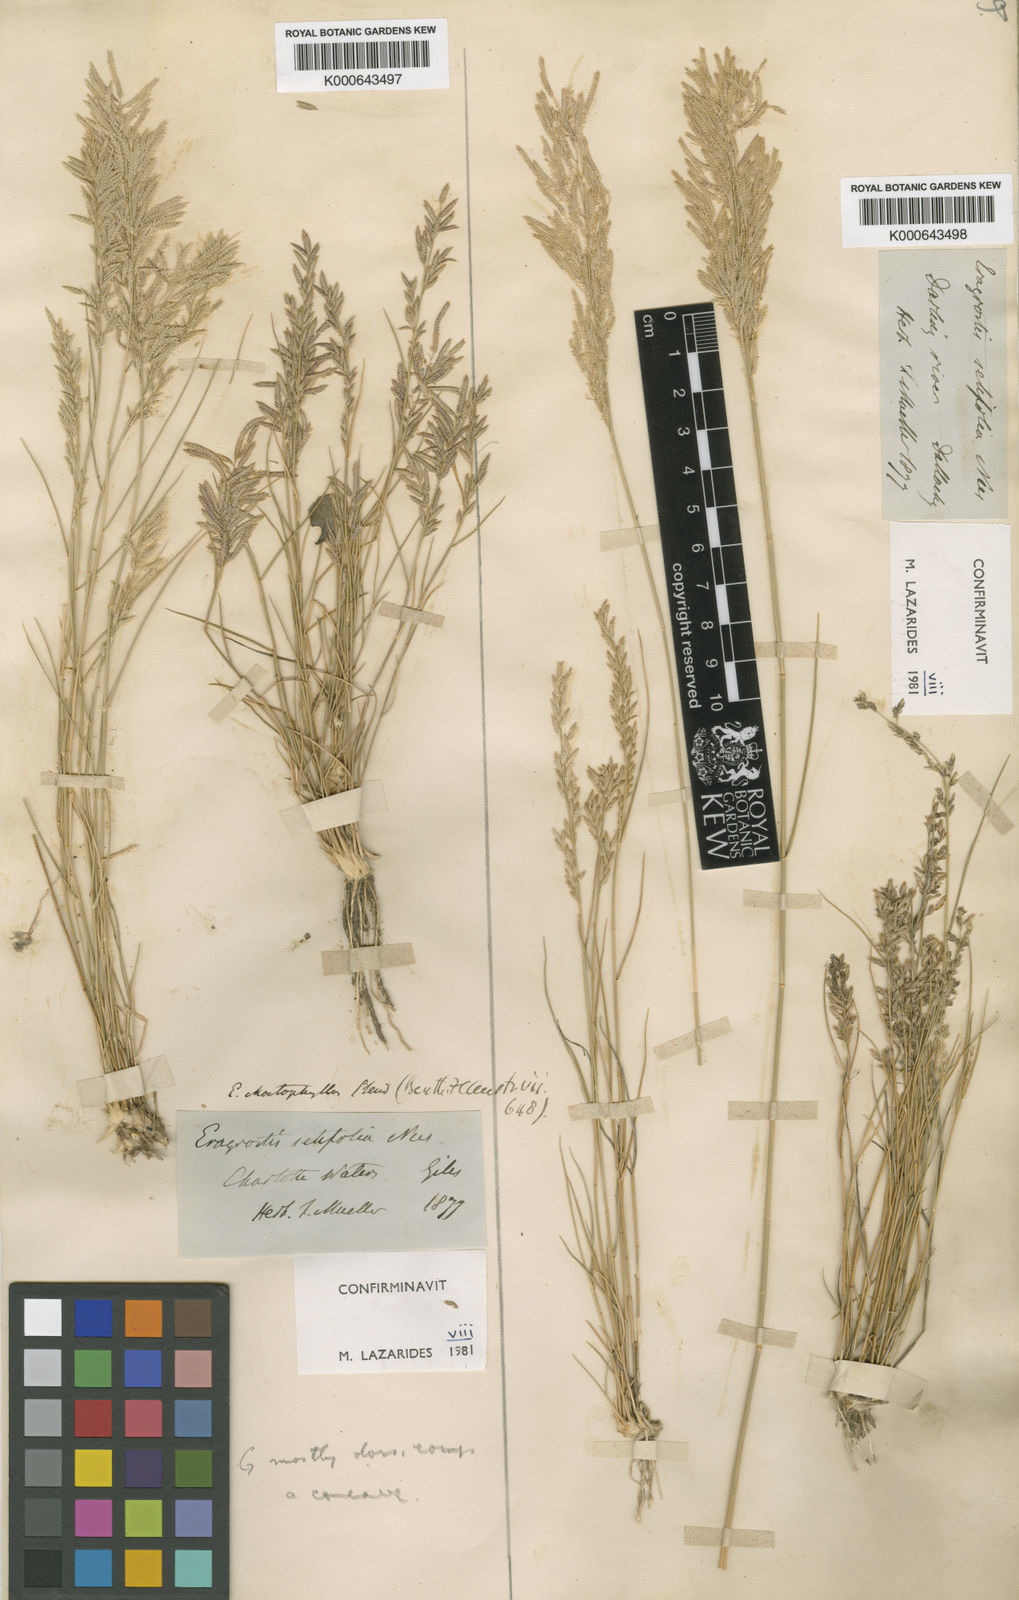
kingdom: Plantae
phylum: Tracheophyta
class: Liliopsida
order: Poales
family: Poaceae
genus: Eragrostis
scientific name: Eragrostis setifolia
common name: Bristleleaf lovegrass
